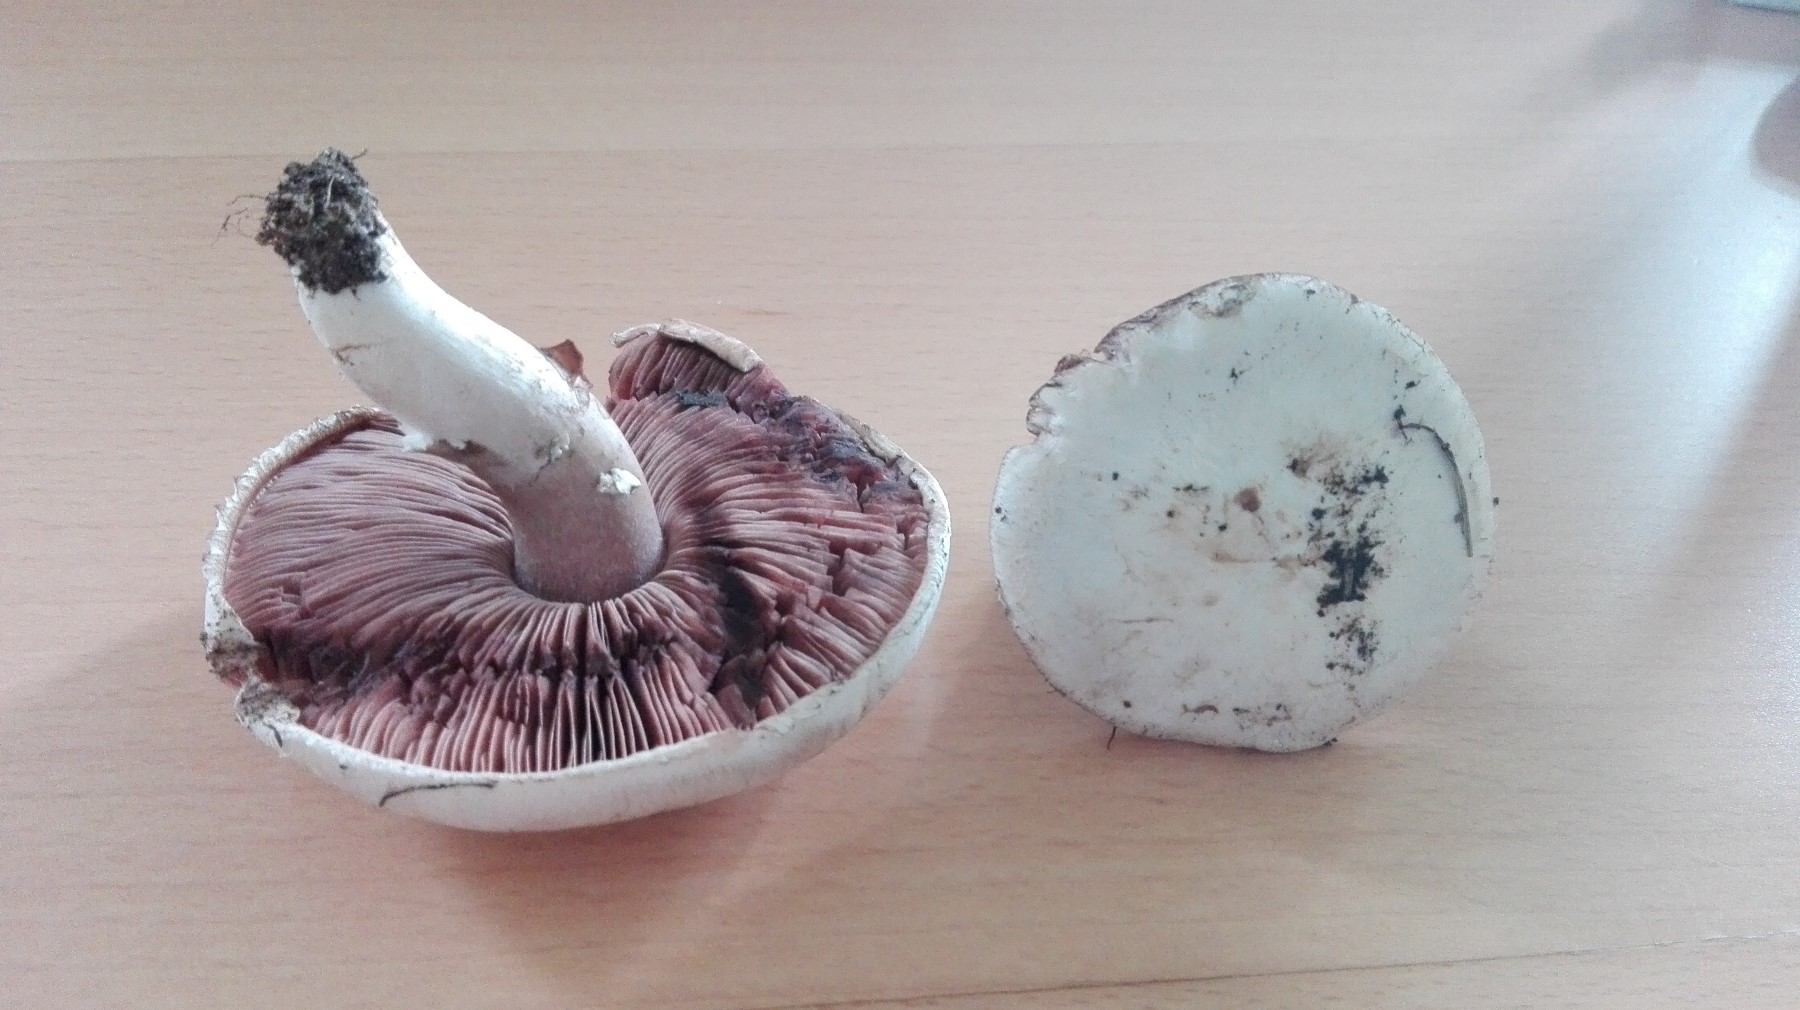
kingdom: Fungi
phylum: Basidiomycota
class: Agaricomycetes
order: Agaricales
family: Agaricaceae
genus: Agaricus
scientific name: Agaricus campestris
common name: mark-champignon
